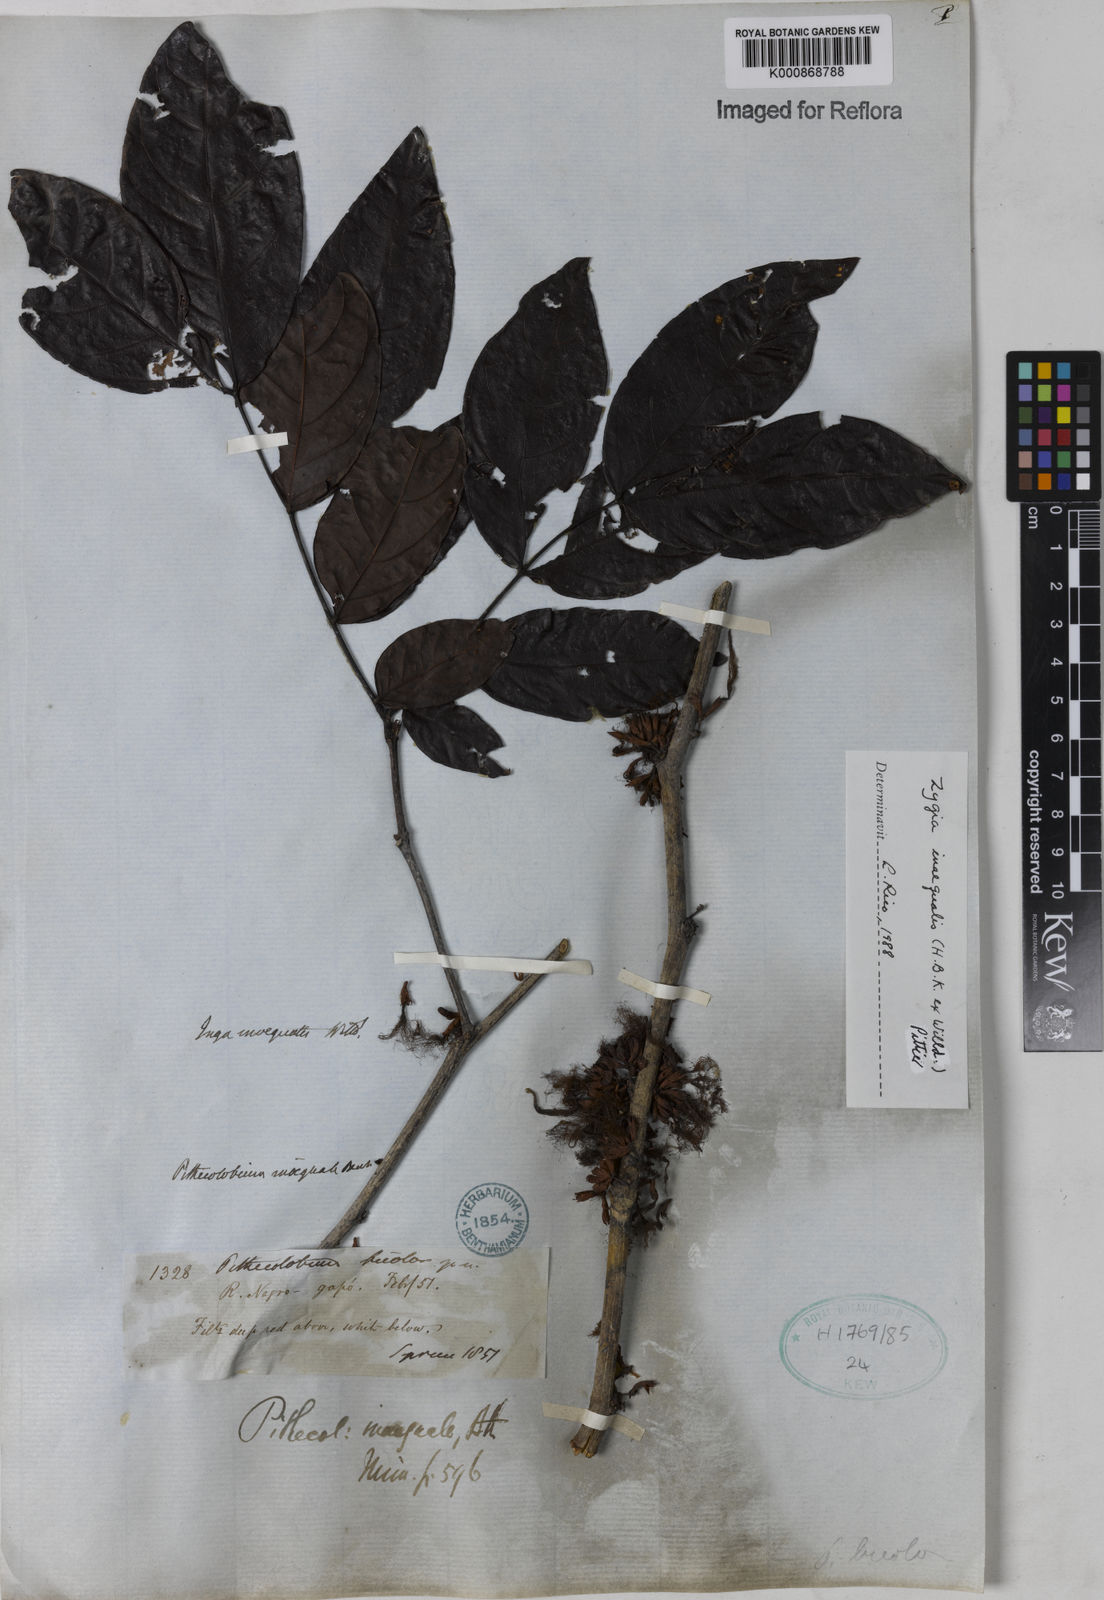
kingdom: Plantae
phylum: Tracheophyta
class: Magnoliopsida
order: Fabales
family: Fabaceae
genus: Zygia
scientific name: Zygia inaequalis
